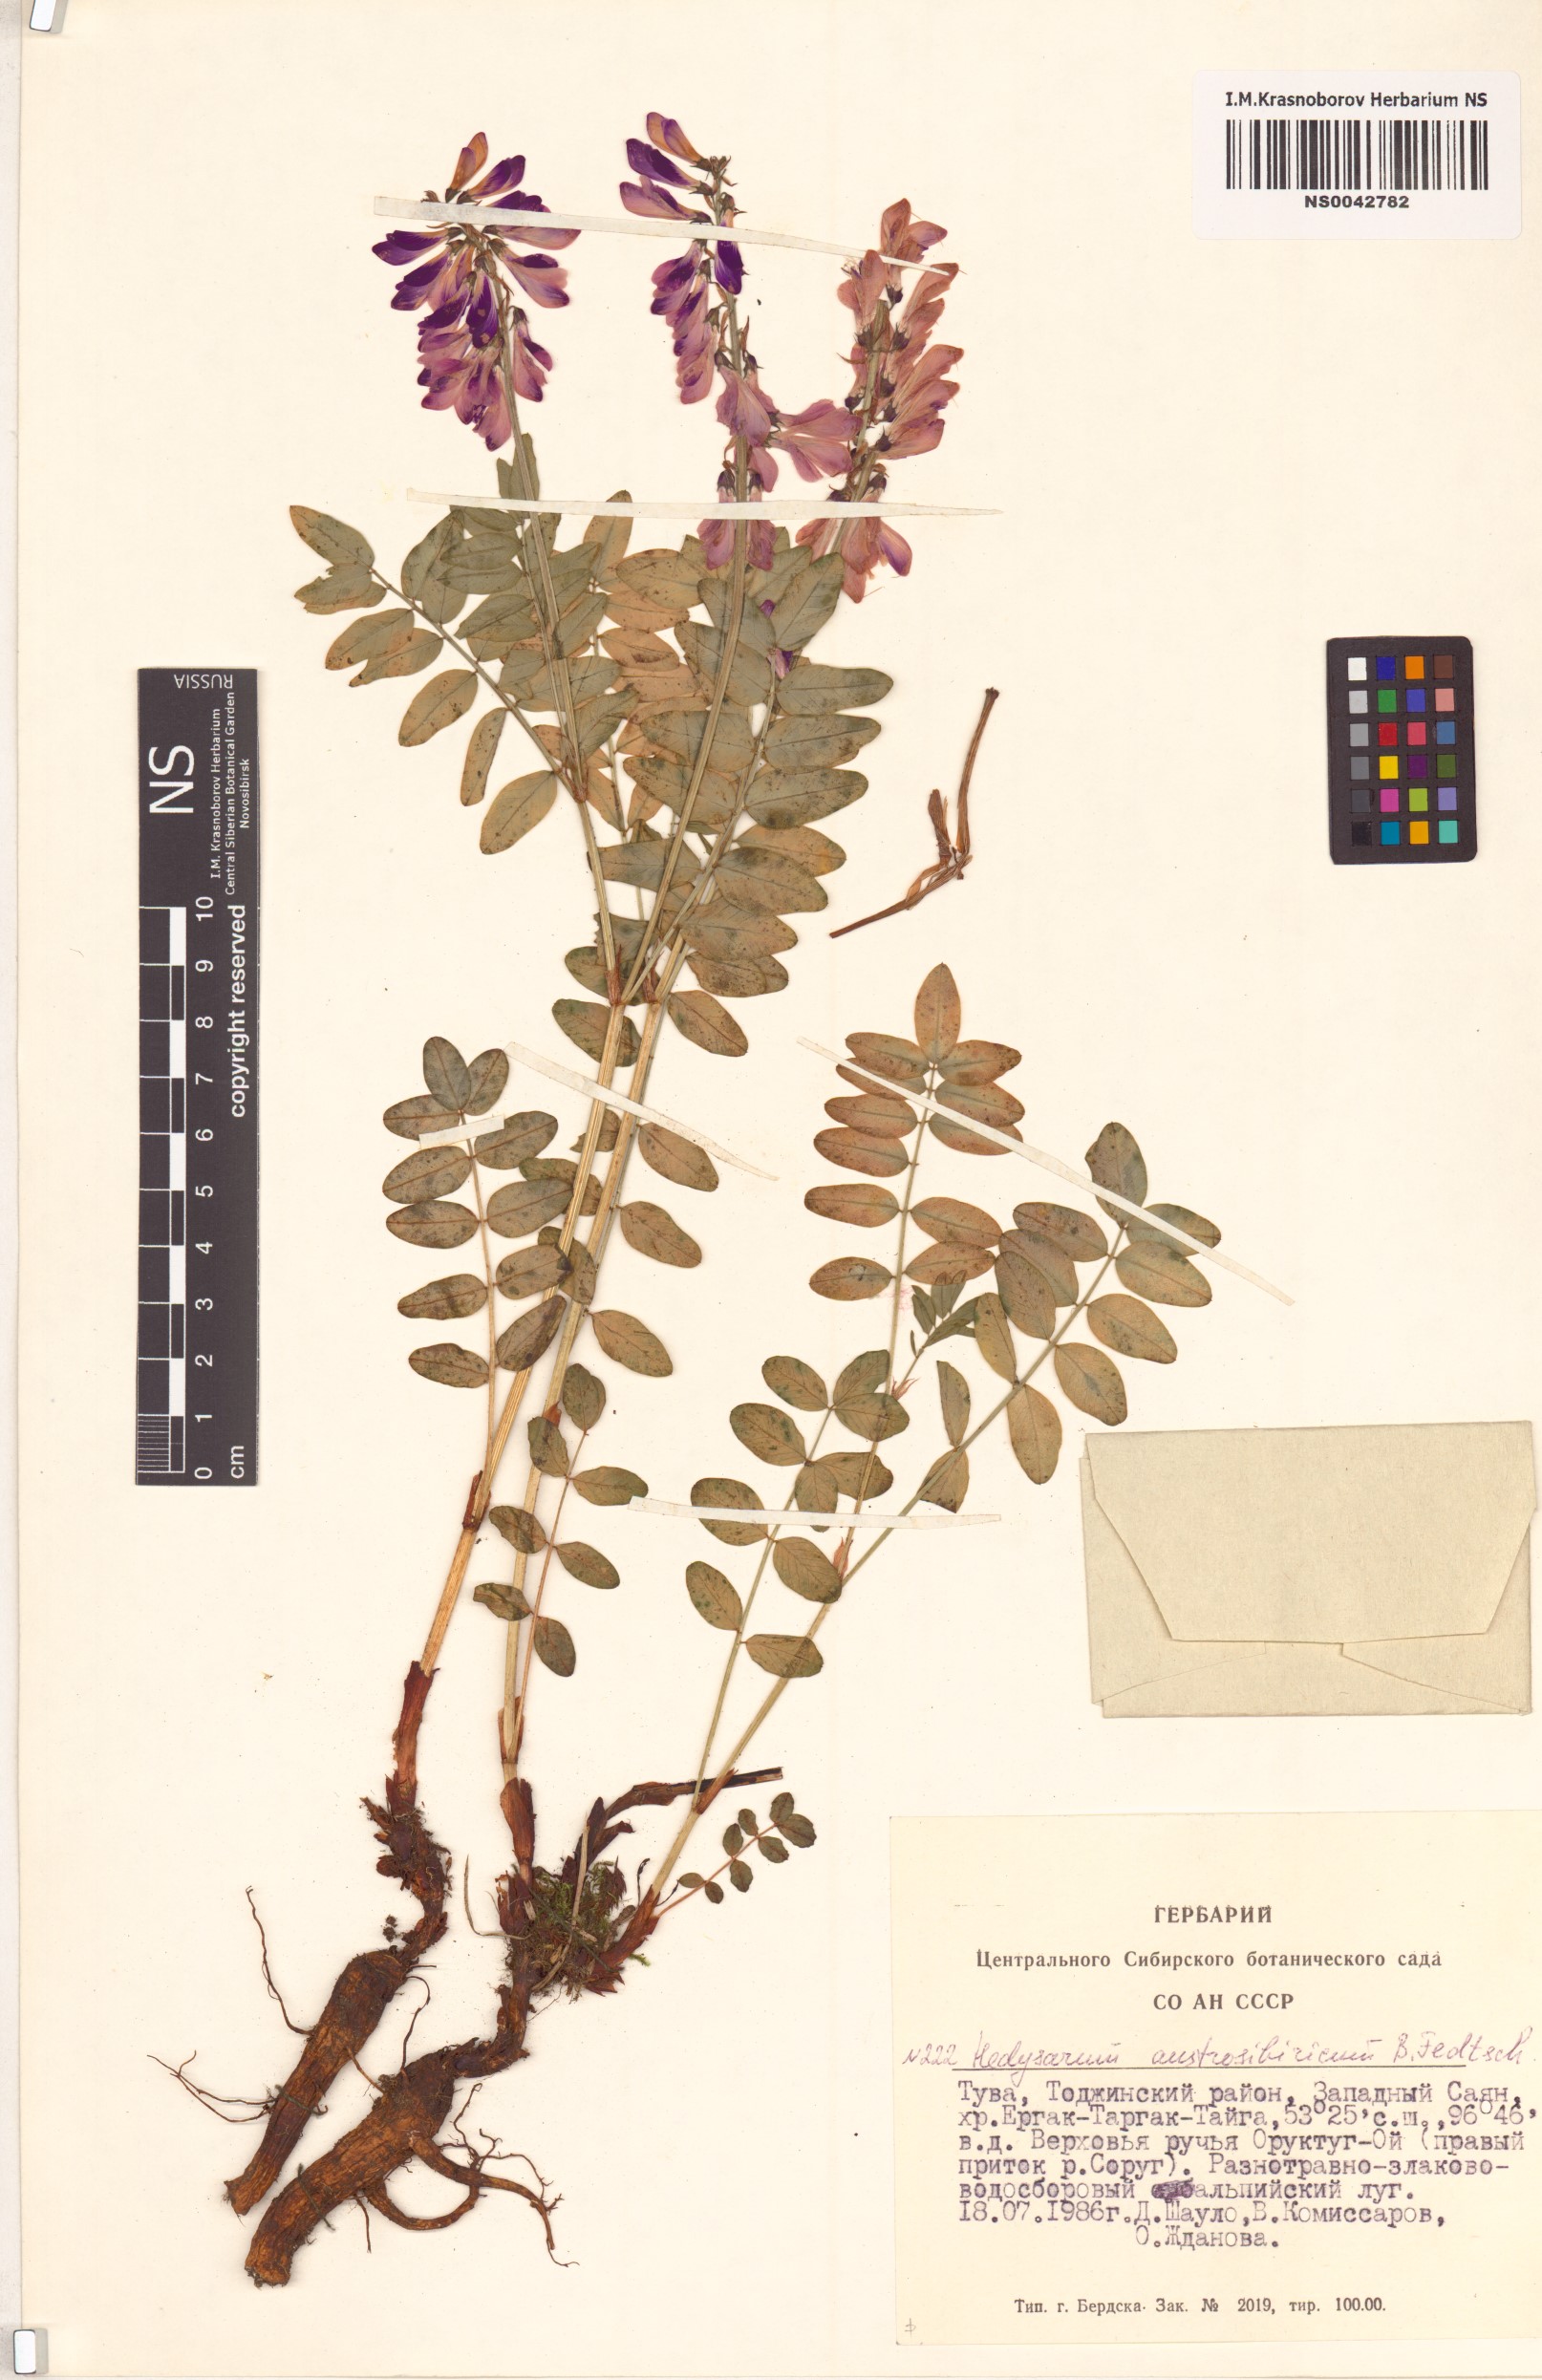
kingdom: Plantae
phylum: Tracheophyta
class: Magnoliopsida
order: Fabales
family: Fabaceae
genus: Hedysarum
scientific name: Hedysarum neglectum
